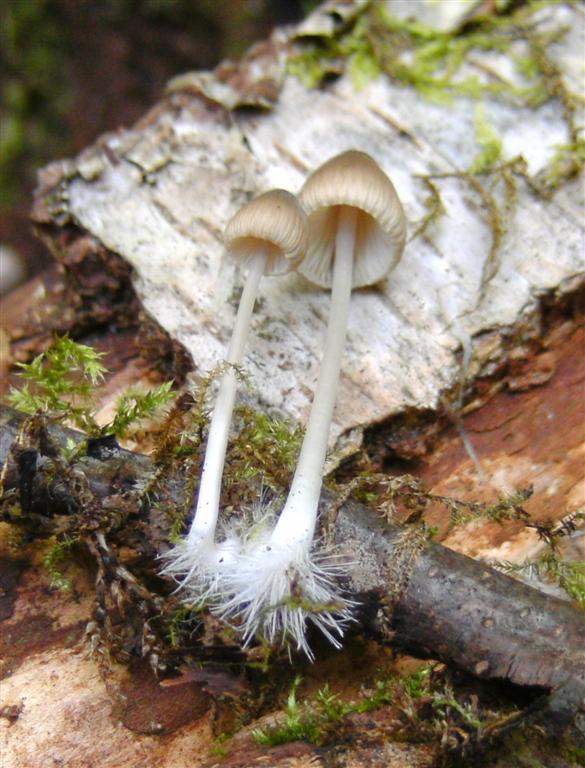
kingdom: Fungi
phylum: Basidiomycota
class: Agaricomycetes
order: Agaricales
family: Mycenaceae
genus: Mycena
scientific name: Mycena vitilis
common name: blankstokket huesvamp
